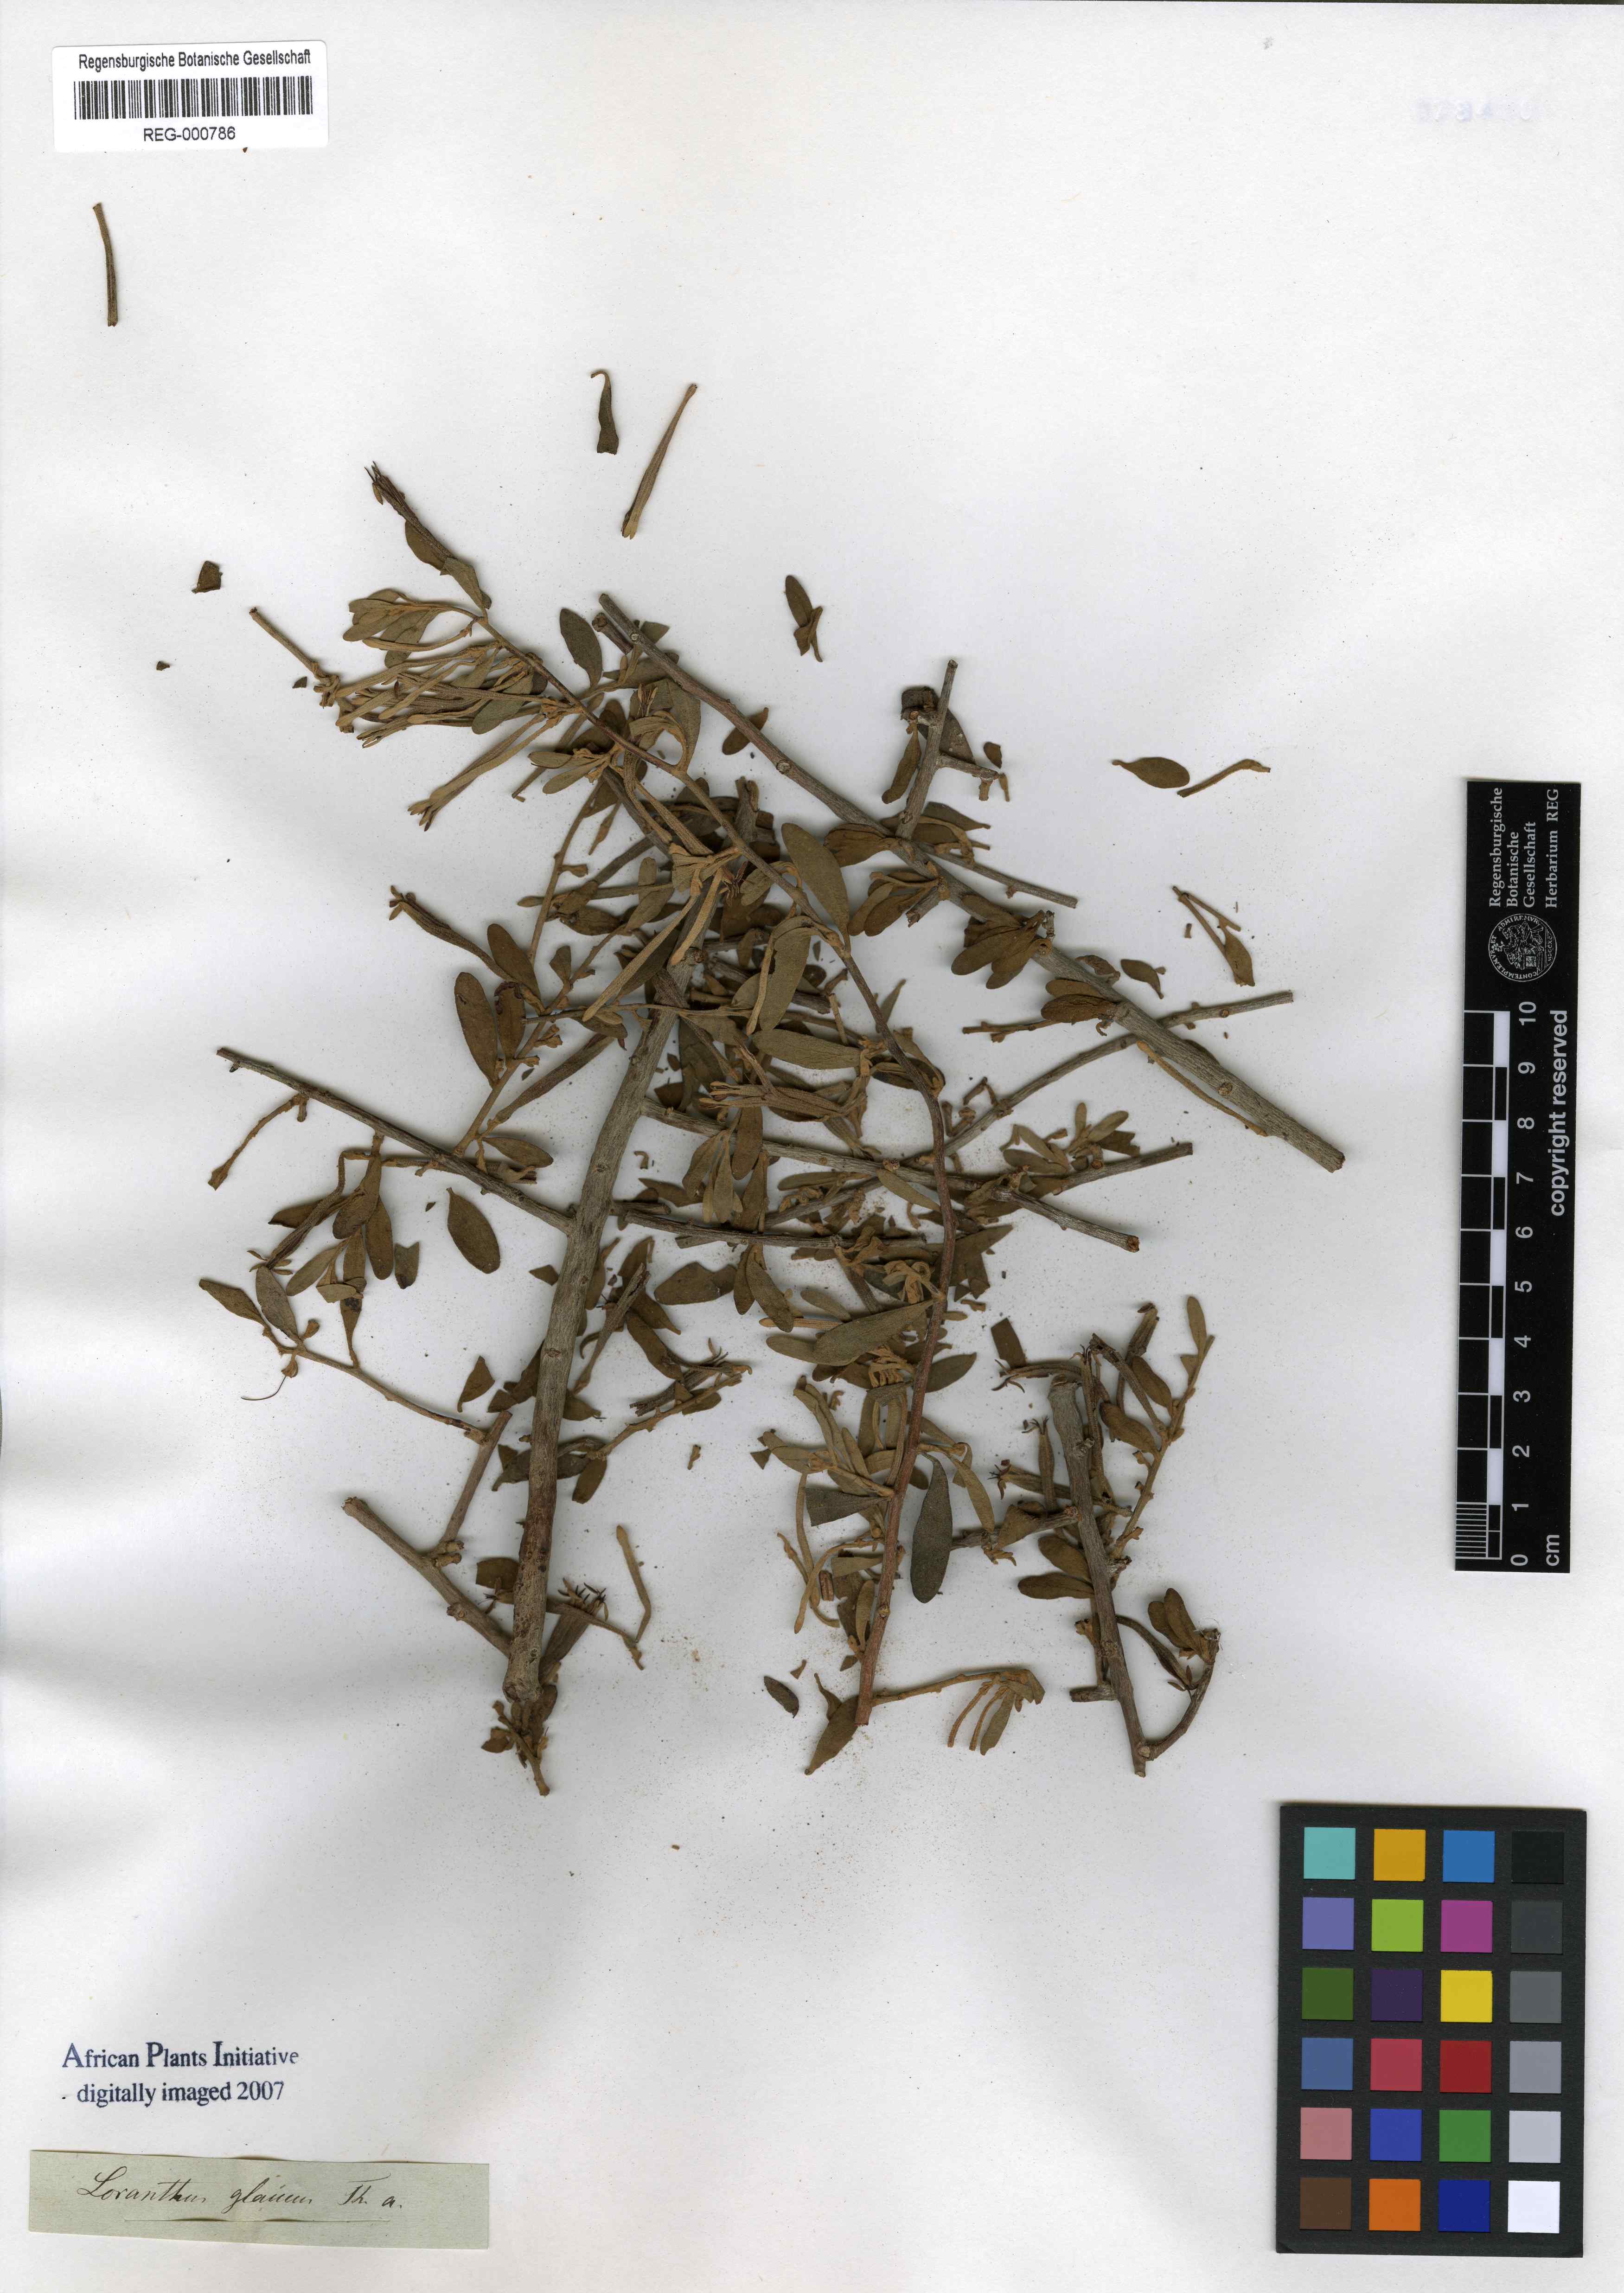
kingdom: Plantae
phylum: Tracheophyta
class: Magnoliopsida
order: Santalales
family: Loranthaceae
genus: Septulina
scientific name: Septulina glauca
